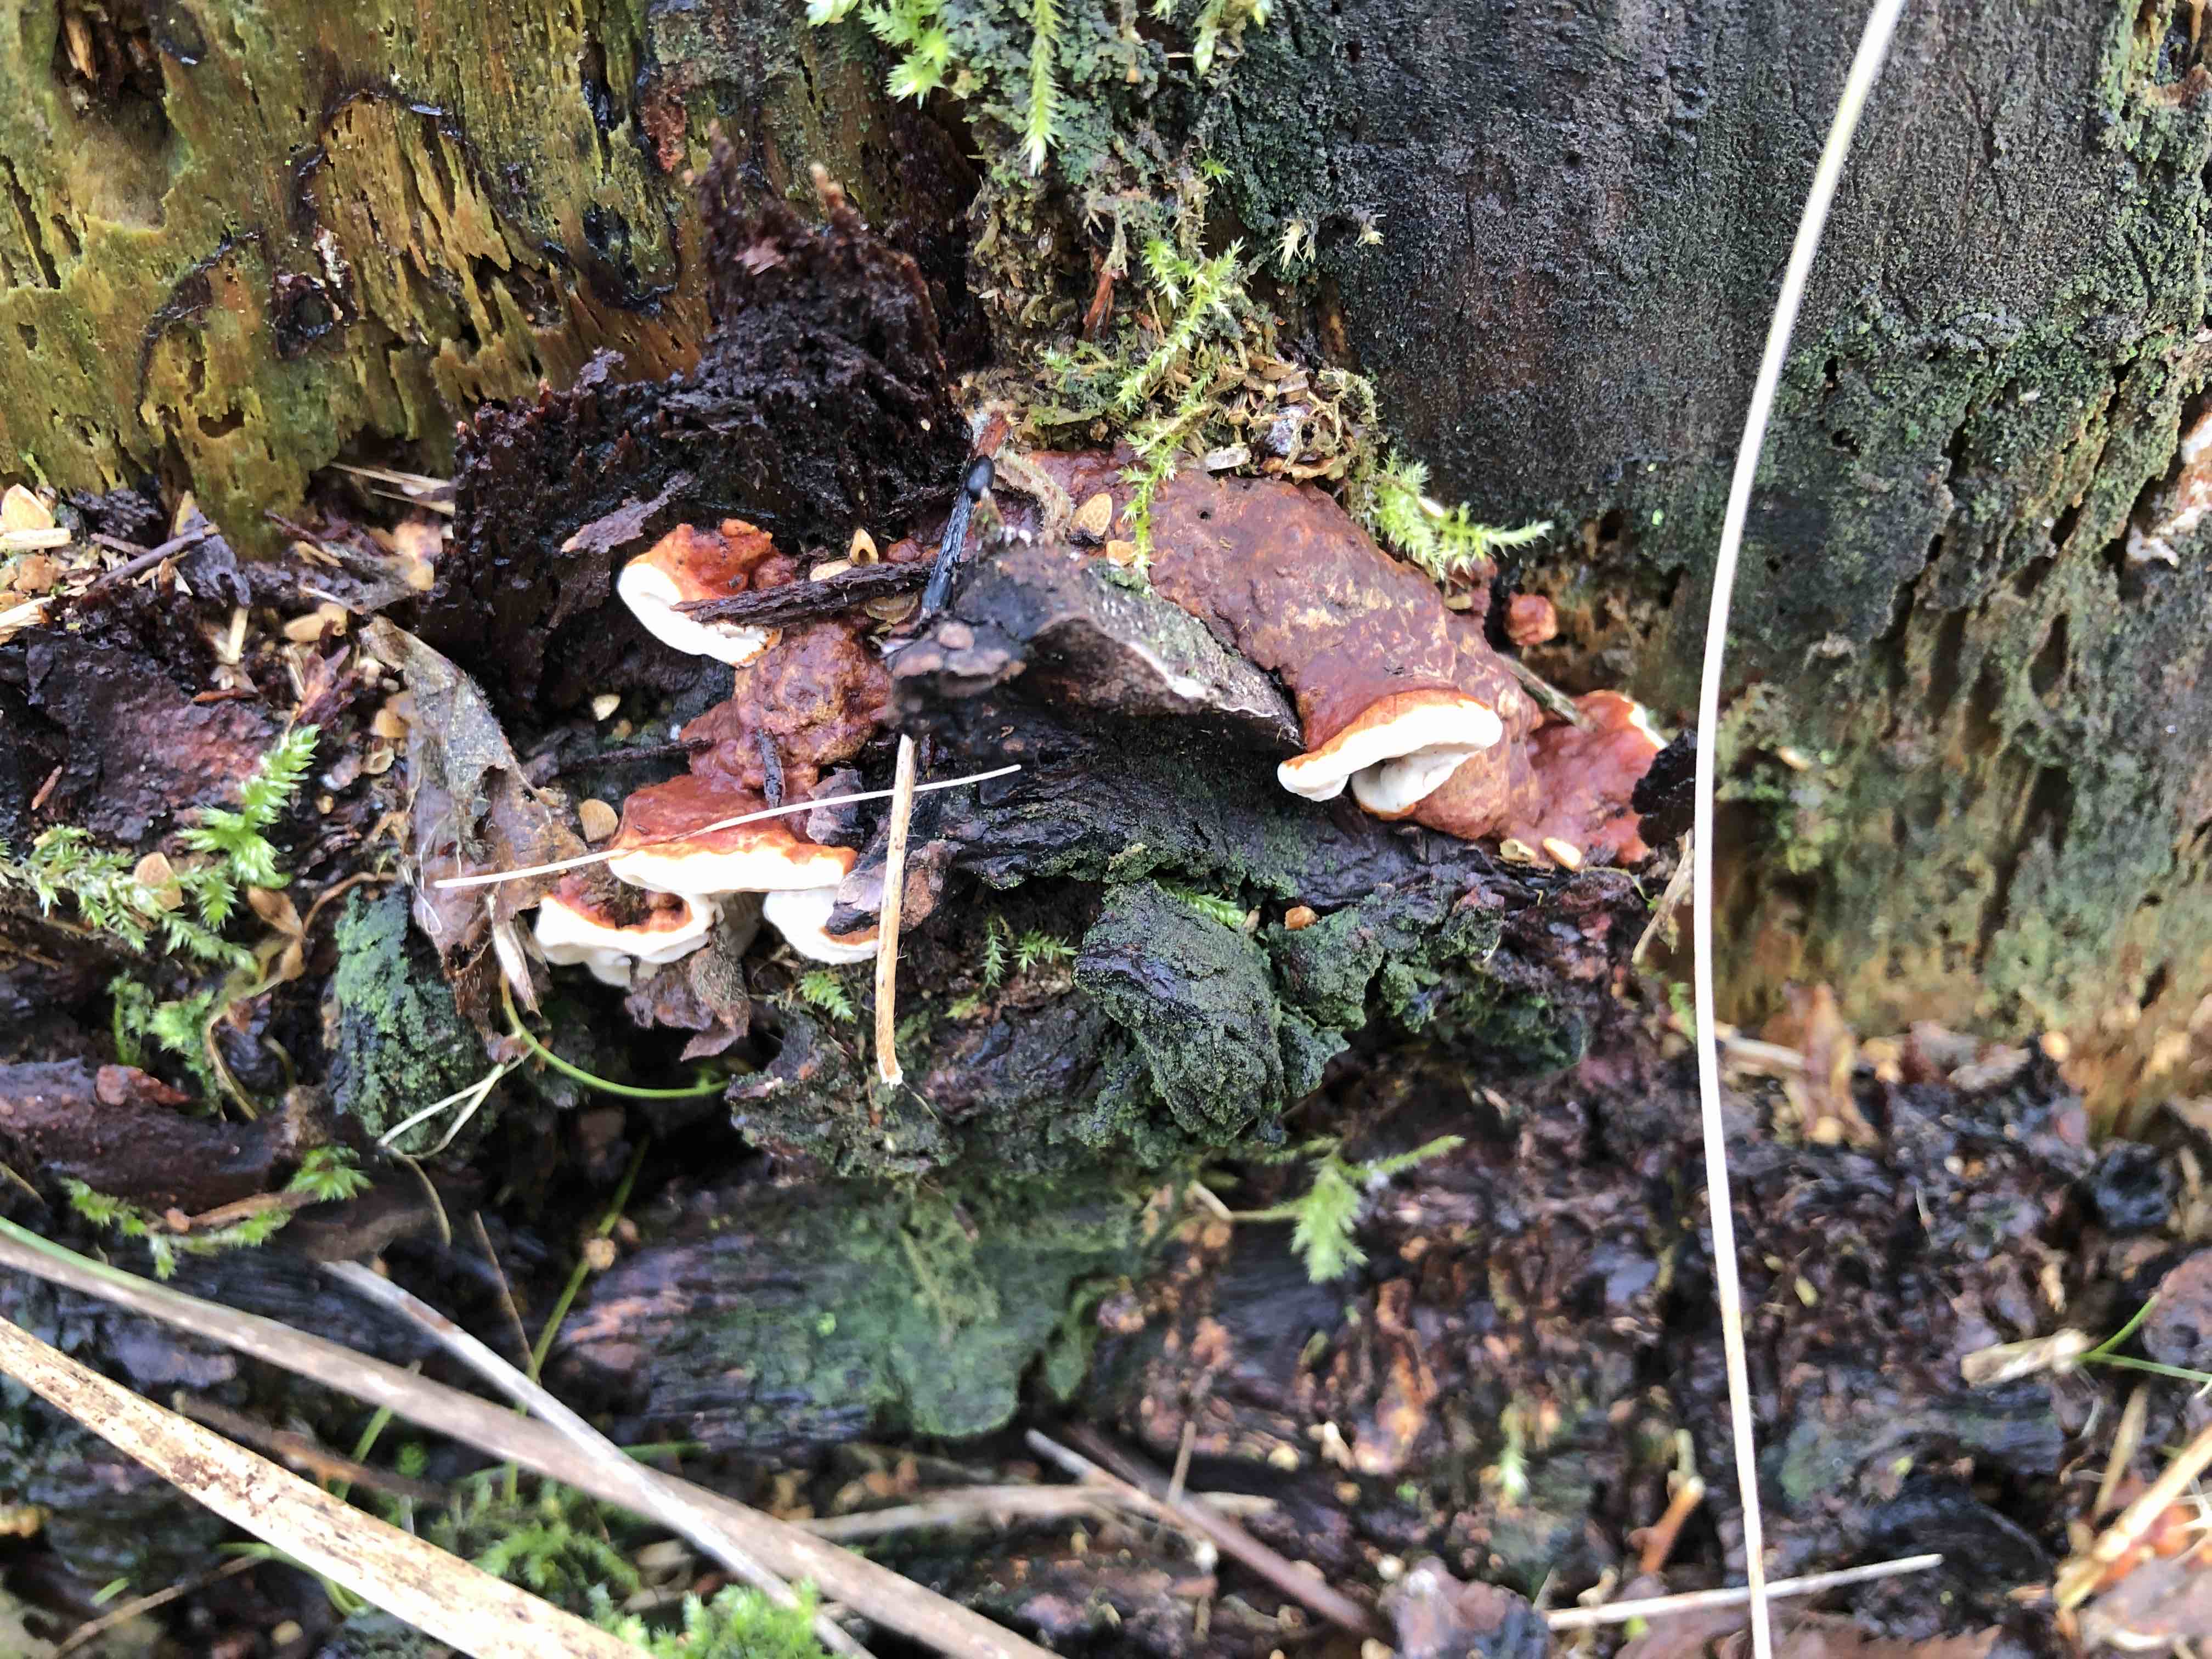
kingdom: Fungi
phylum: Basidiomycota
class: Agaricomycetes
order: Russulales
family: Bondarzewiaceae
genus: Heterobasidion
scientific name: Heterobasidion annosum
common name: almindelig rodfordærver
